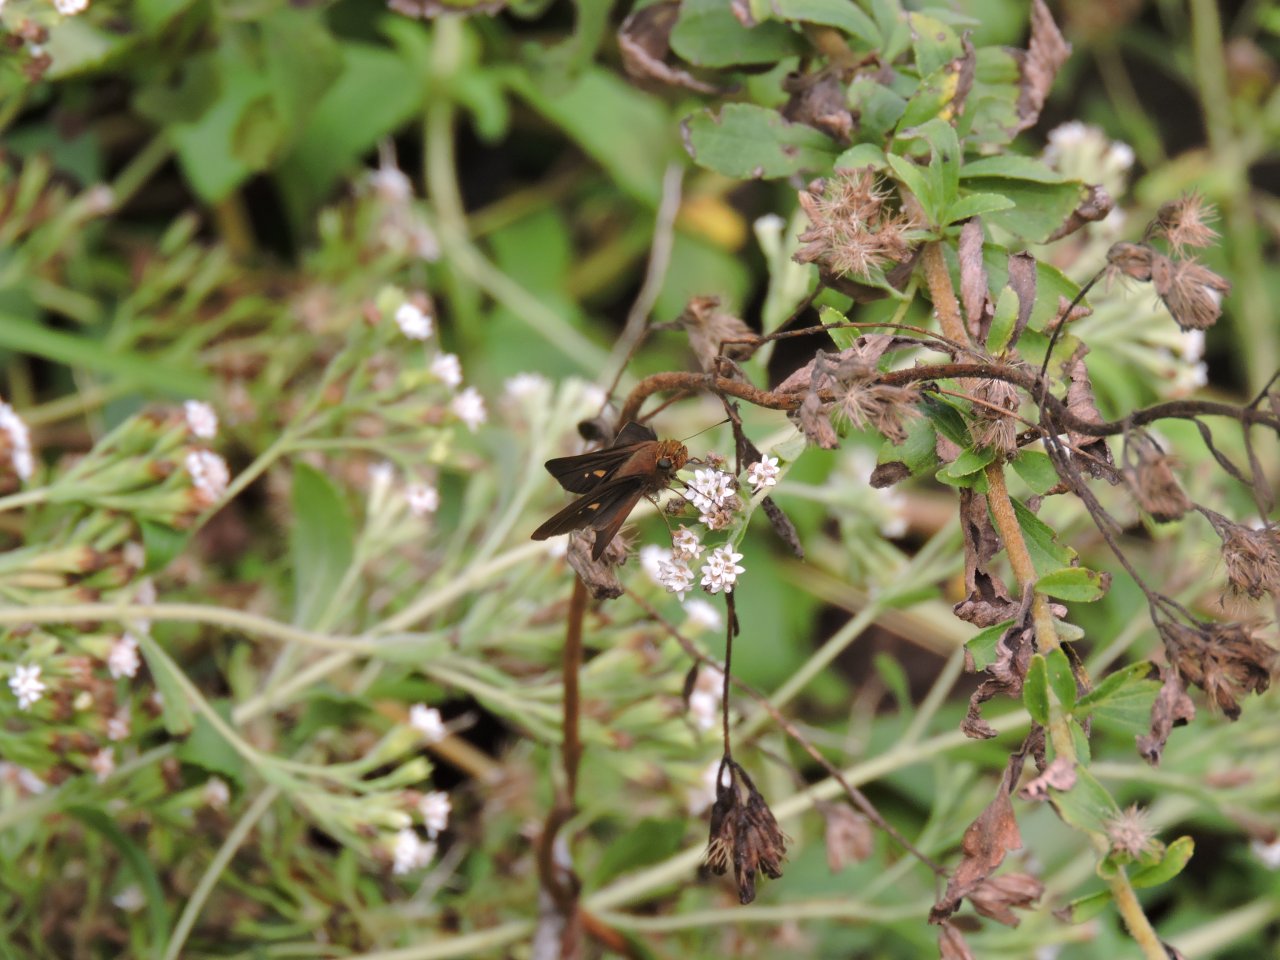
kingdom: Animalia
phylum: Arthropoda
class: Insecta
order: Lepidoptera
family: Hesperiidae
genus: Panoquina
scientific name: Panoquina ocola
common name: Ocola Skipper
